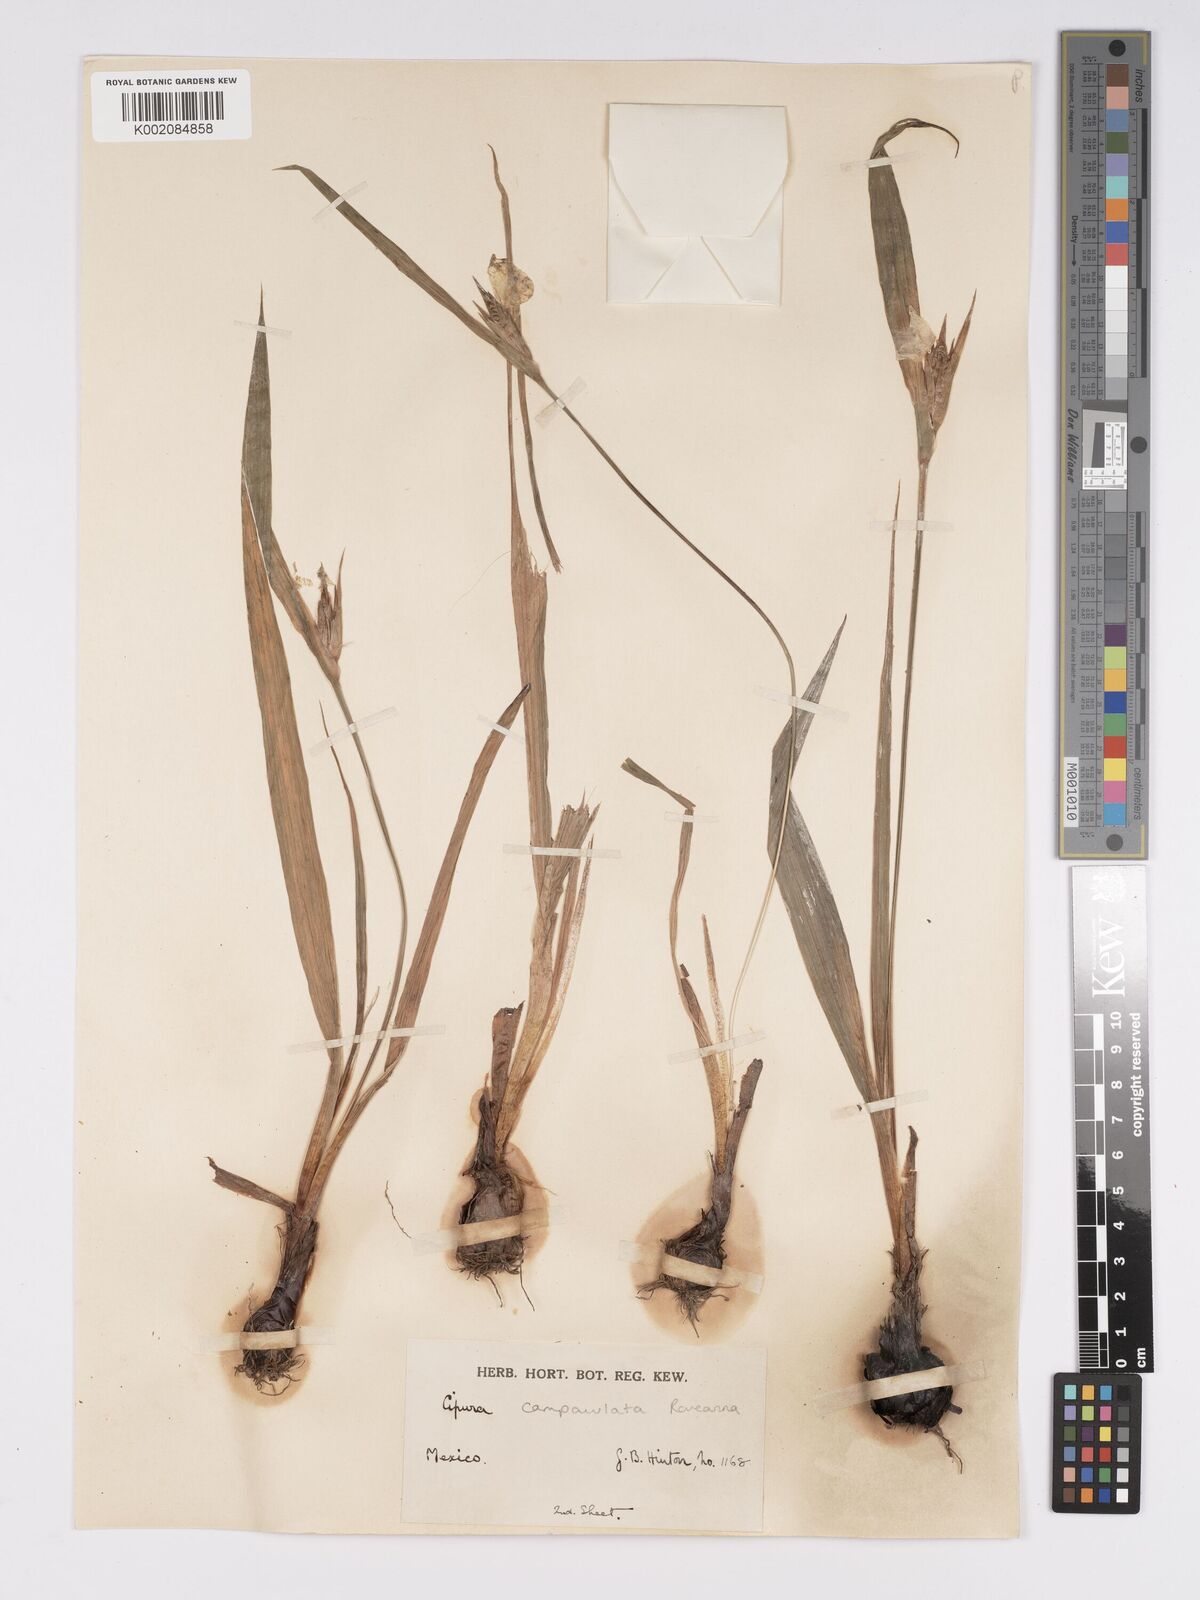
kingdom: Plantae
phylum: Tracheophyta
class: Liliopsida
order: Asparagales
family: Iridaceae
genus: Cipura
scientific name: Cipura campanulata
